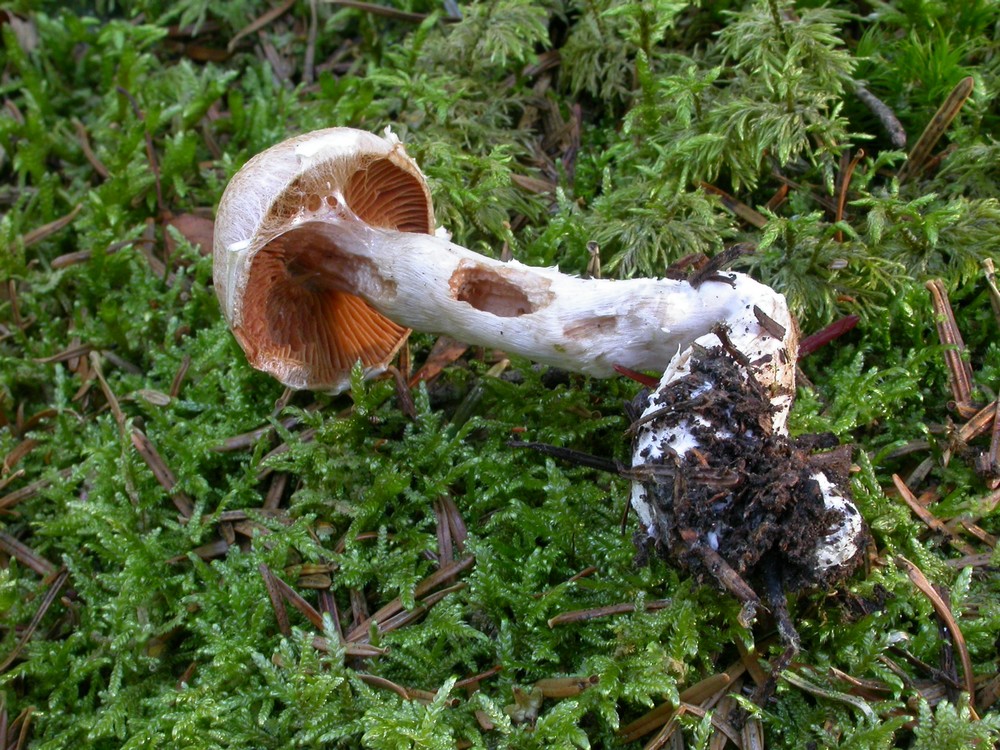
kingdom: Fungi
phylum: Basidiomycota
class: Agaricomycetes
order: Agaricales
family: Cortinariaceae
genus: Cortinarius
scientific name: Cortinarius laniger
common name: teglbladet slørhat
